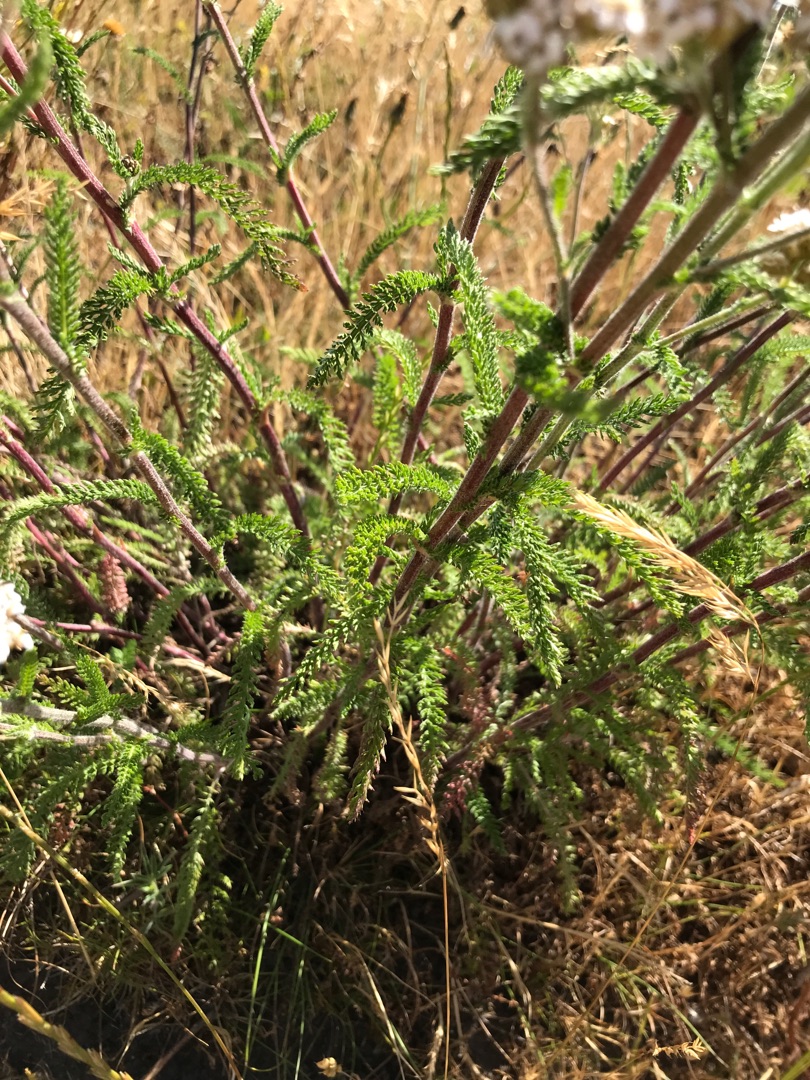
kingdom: Plantae
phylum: Tracheophyta
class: Magnoliopsida
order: Asterales
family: Asteraceae
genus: Achillea
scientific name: Achillea millefolium
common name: Almindelig røllike
